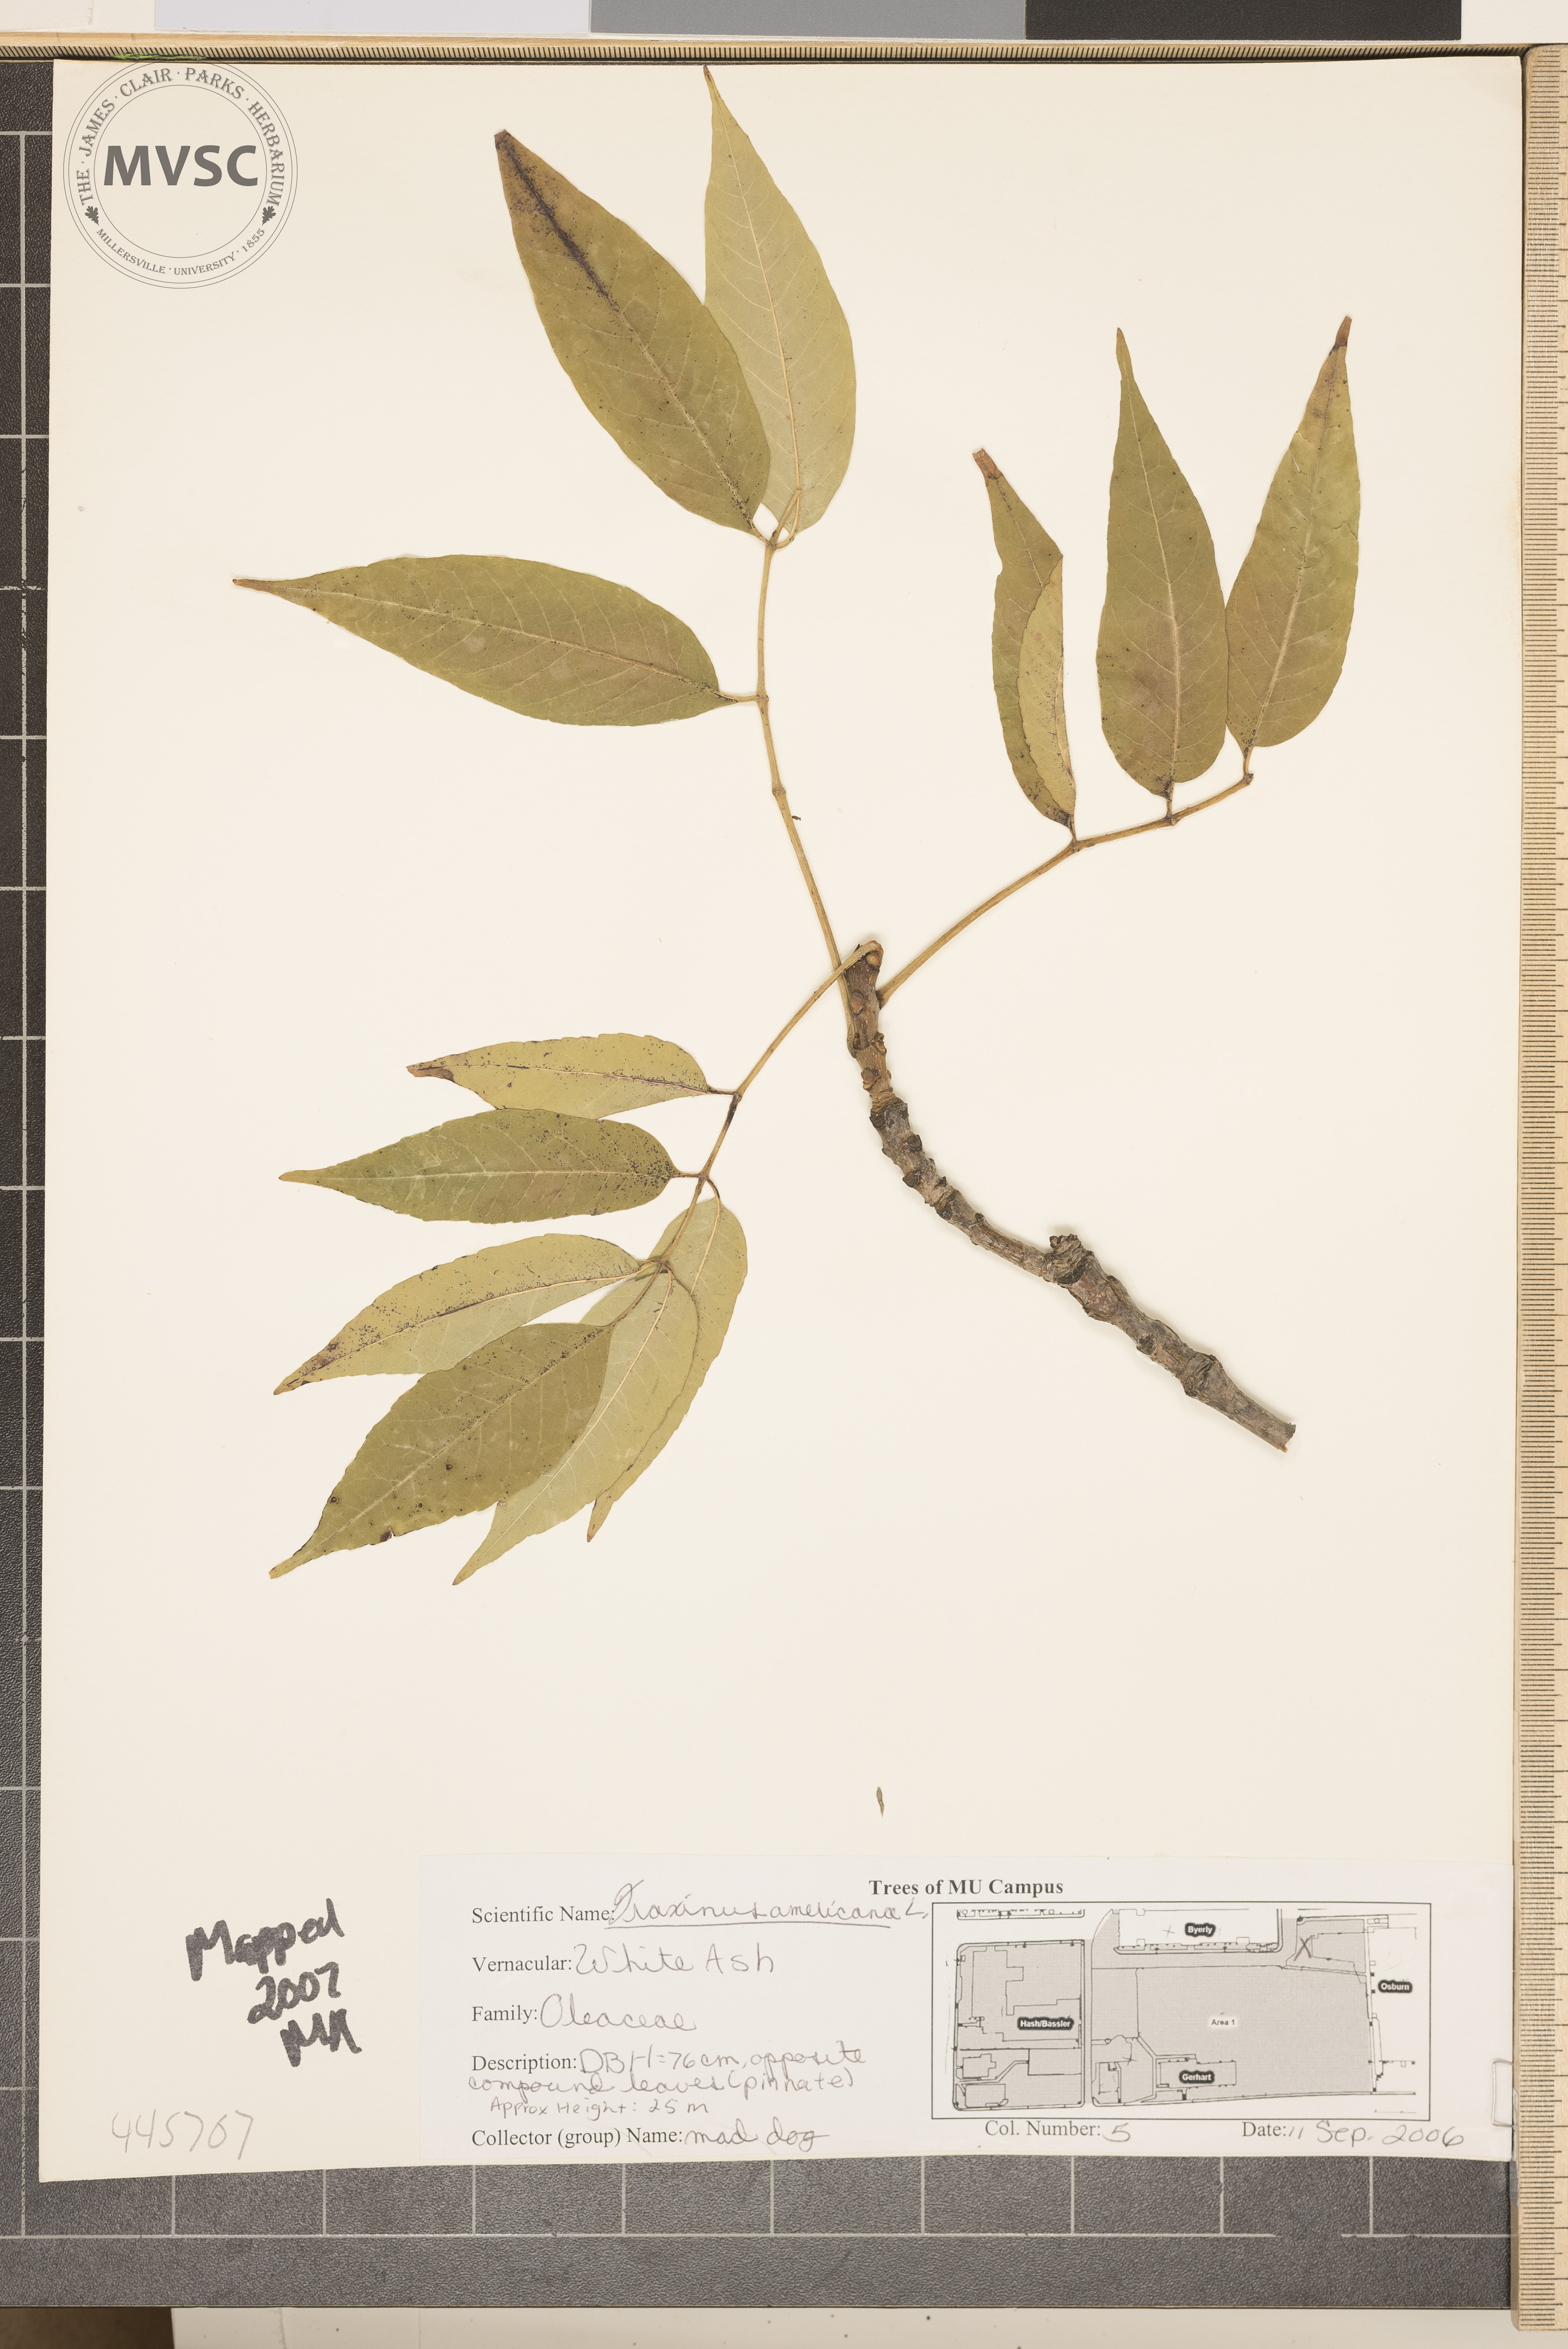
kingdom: Plantae
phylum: Tracheophyta
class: Magnoliopsida
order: Lamiales
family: Oleaceae
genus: Fraxinus
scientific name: Fraxinus americana
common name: White ash
